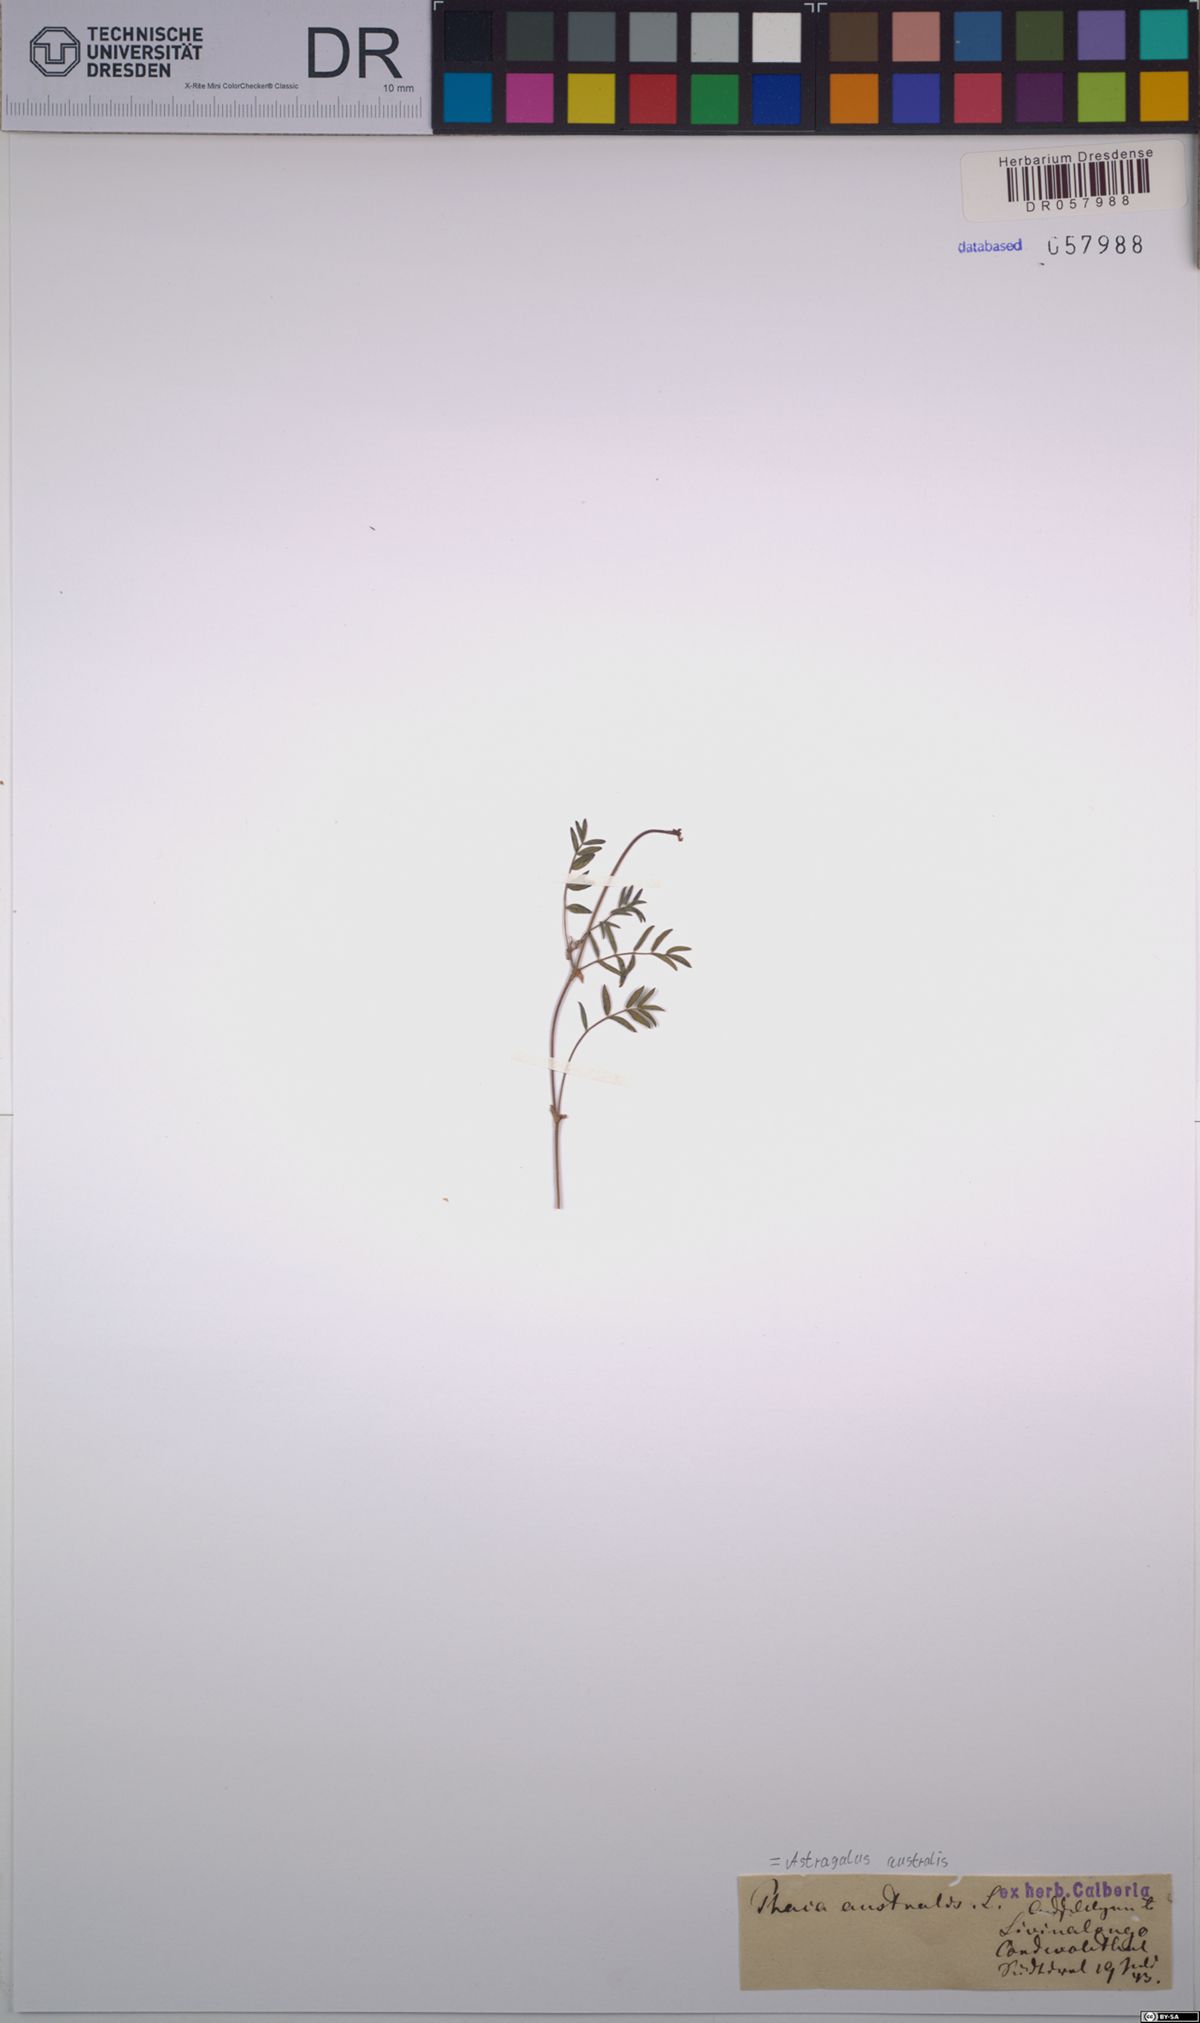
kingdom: Plantae
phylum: Tracheophyta
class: Magnoliopsida
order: Fabales
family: Fabaceae
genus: Astragalus
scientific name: Astragalus australis
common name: Indian milk-vetch
